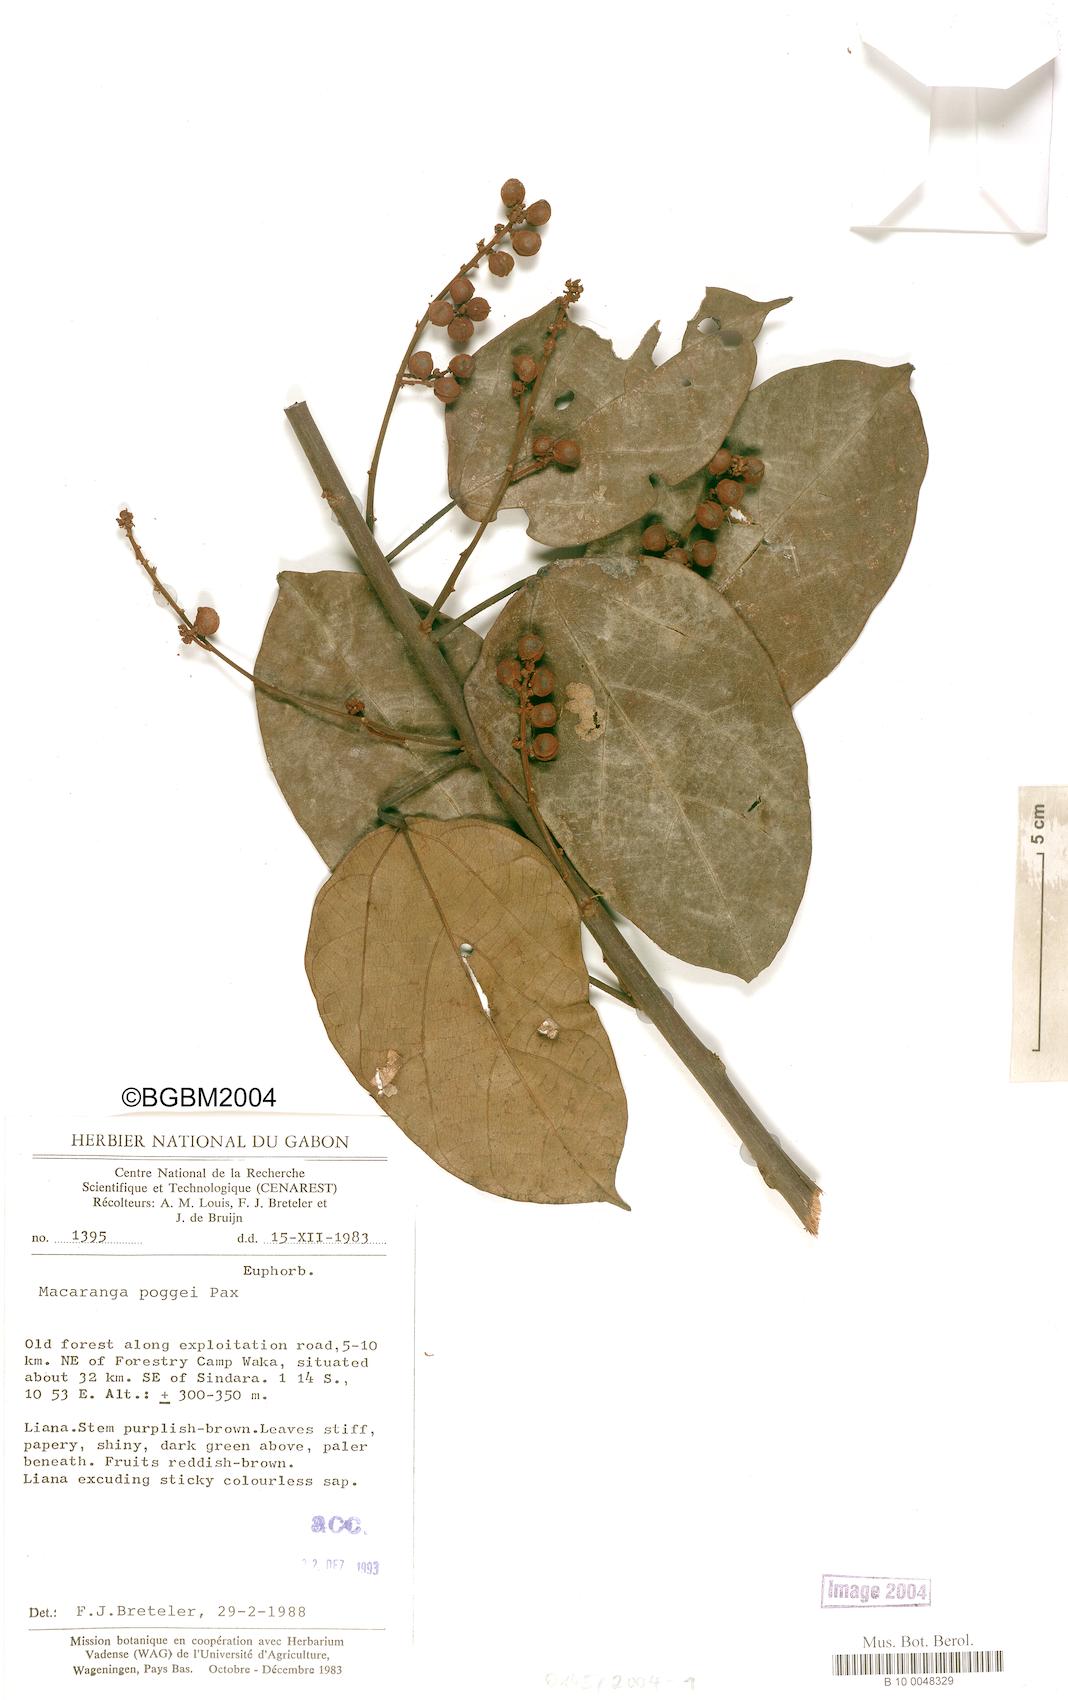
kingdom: Plantae
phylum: Tracheophyta
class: Magnoliopsida
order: Malpighiales
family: Euphorbiaceae
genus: Macaranga
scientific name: Macaranga poggei
